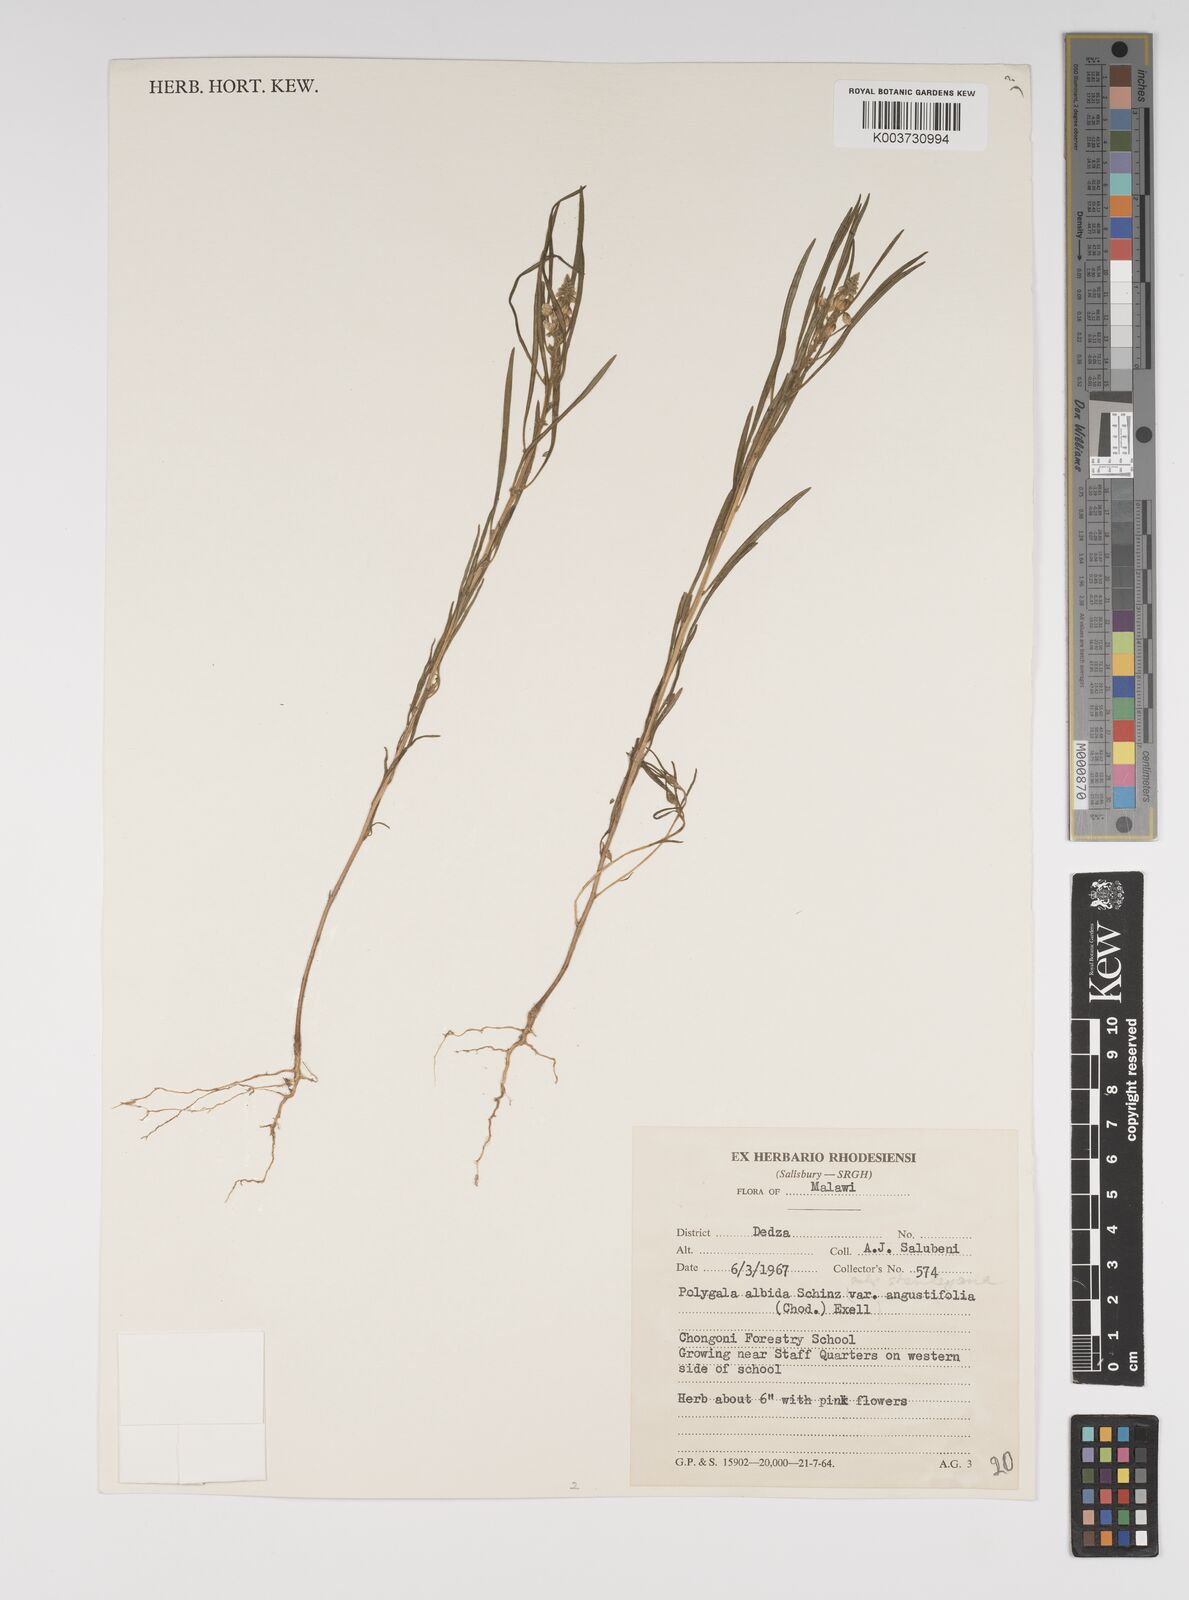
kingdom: Plantae
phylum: Tracheophyta
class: Magnoliopsida
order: Fabales
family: Polygalaceae
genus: Polygala
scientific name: Polygala albida
